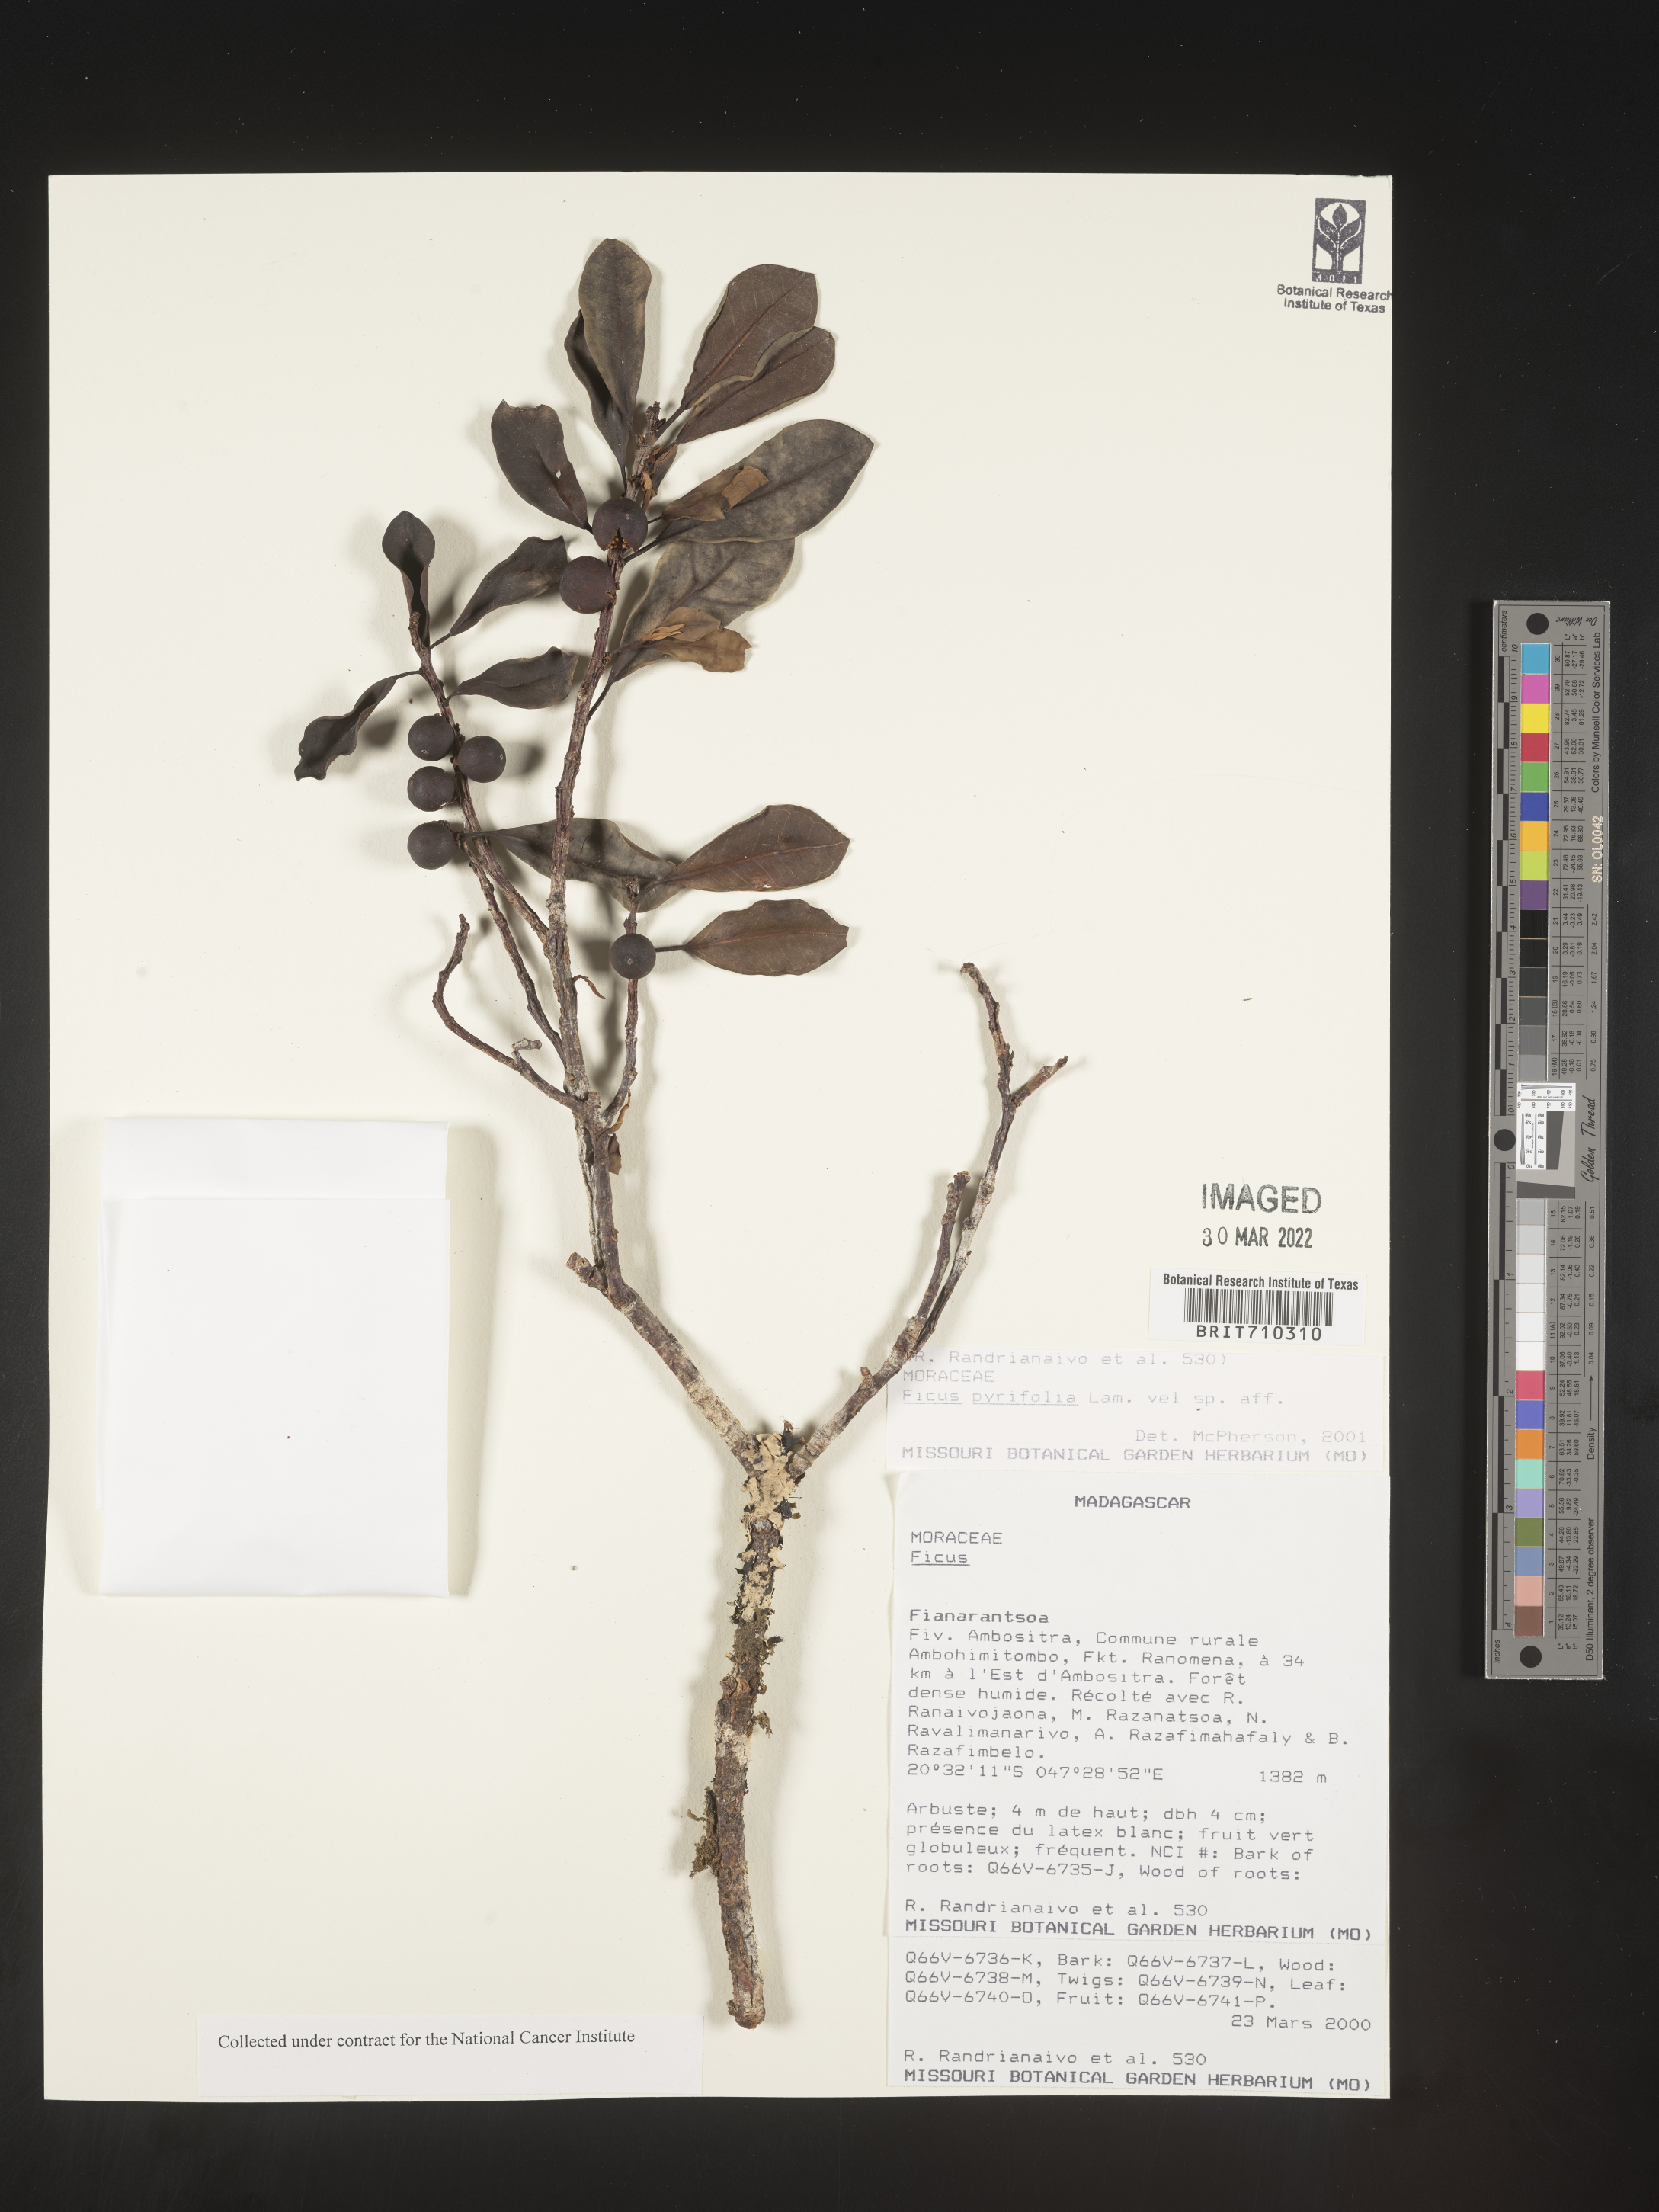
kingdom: Plantae
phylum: Tracheophyta
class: Magnoliopsida
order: Rosales
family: Moraceae
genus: Ficus
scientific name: Ficus
